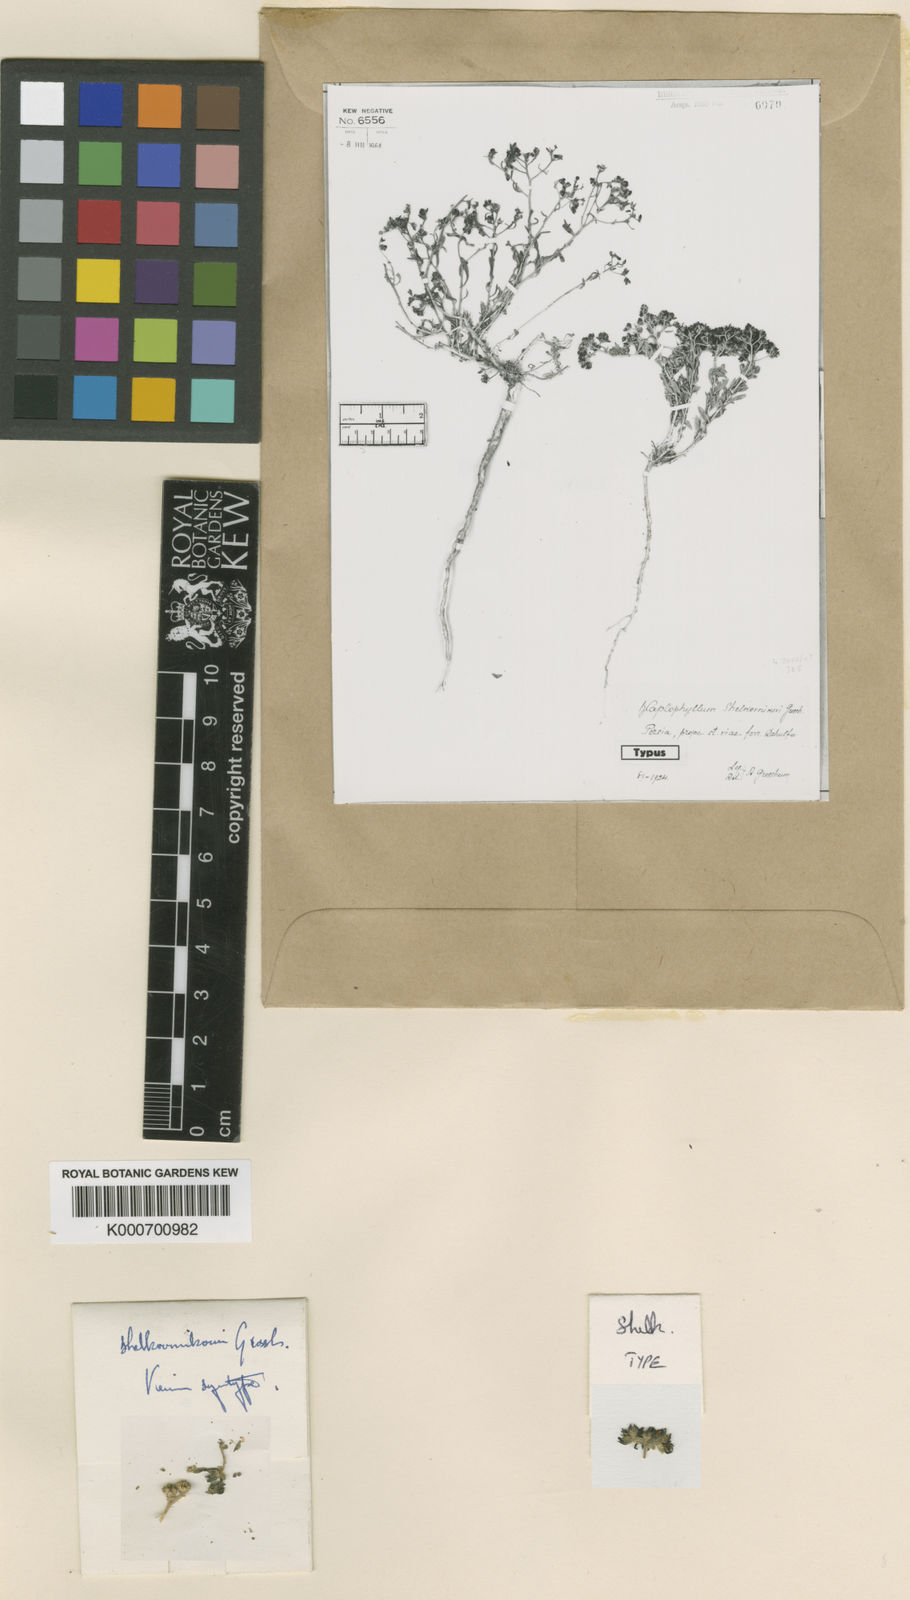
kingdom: Plantae
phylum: Tracheophyta
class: Magnoliopsida
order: Sapindales
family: Rutaceae
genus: Haplophyllum
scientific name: Haplophyllum villosum
